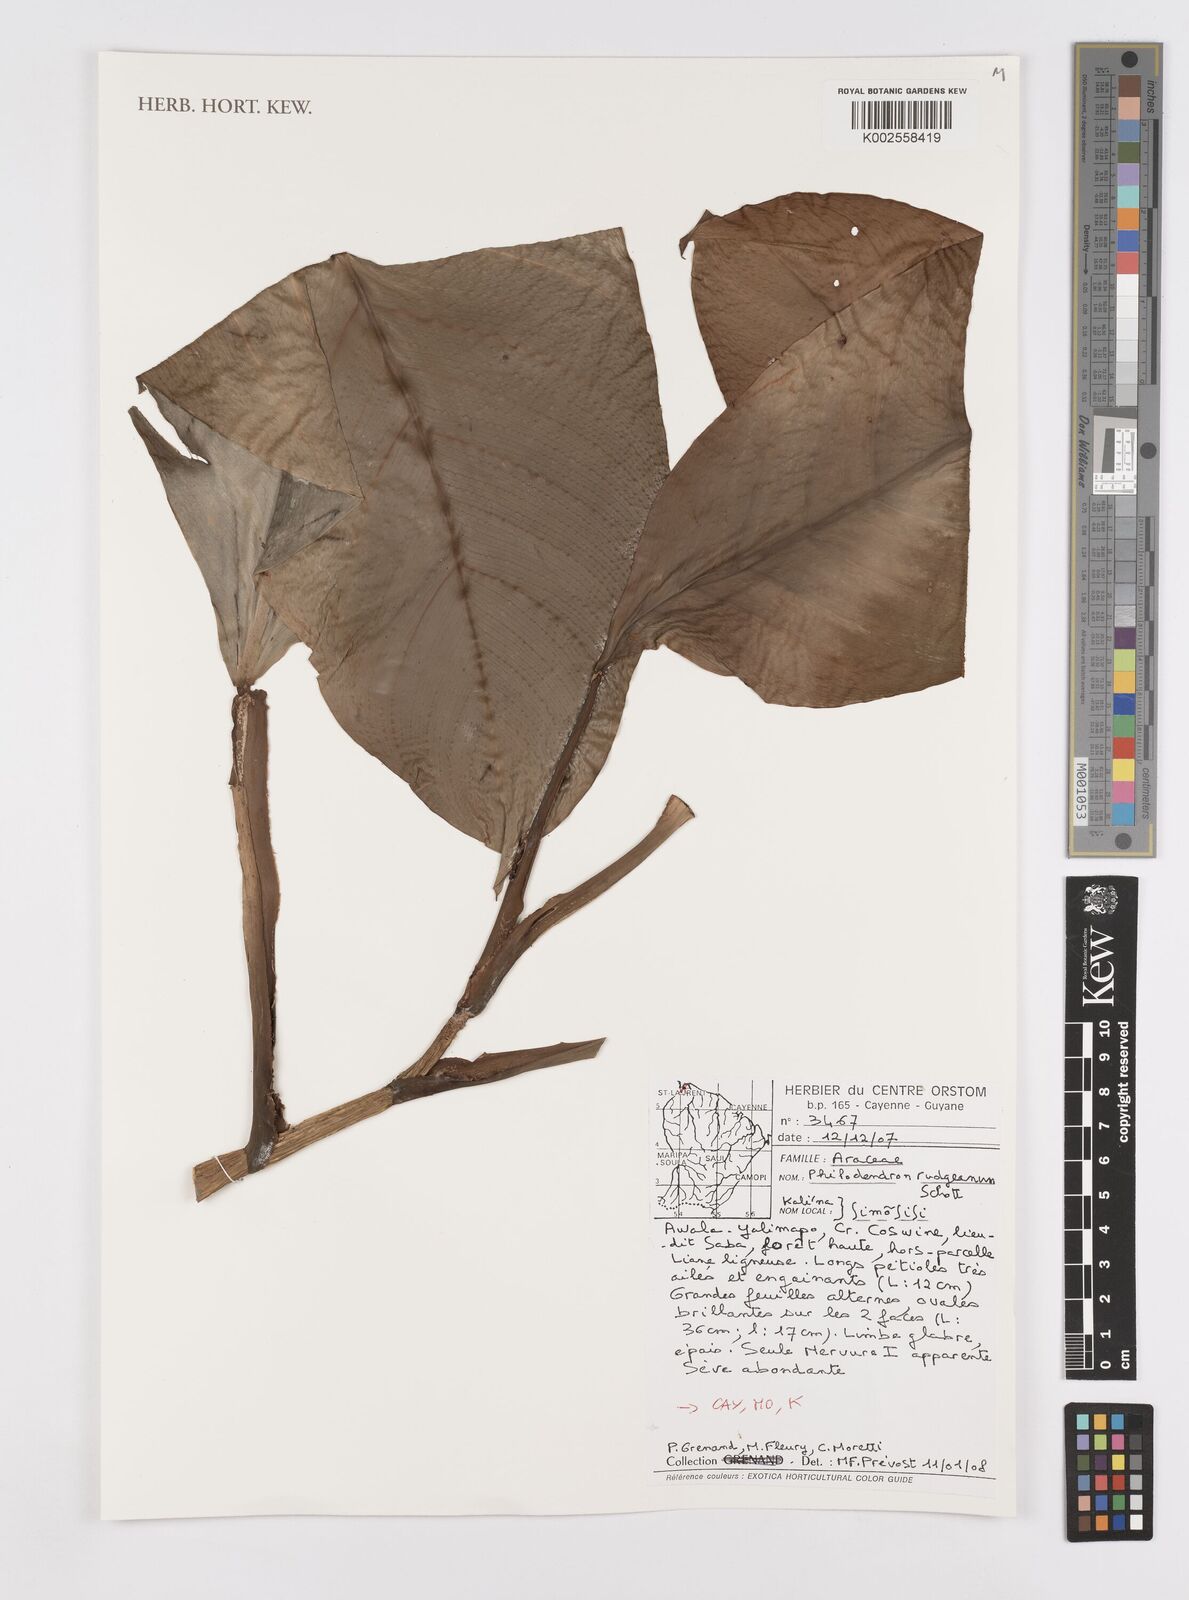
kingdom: Plantae
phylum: Tracheophyta
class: Liliopsida
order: Alismatales
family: Araceae
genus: Philodendron
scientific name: Philodendron rudgeanum
